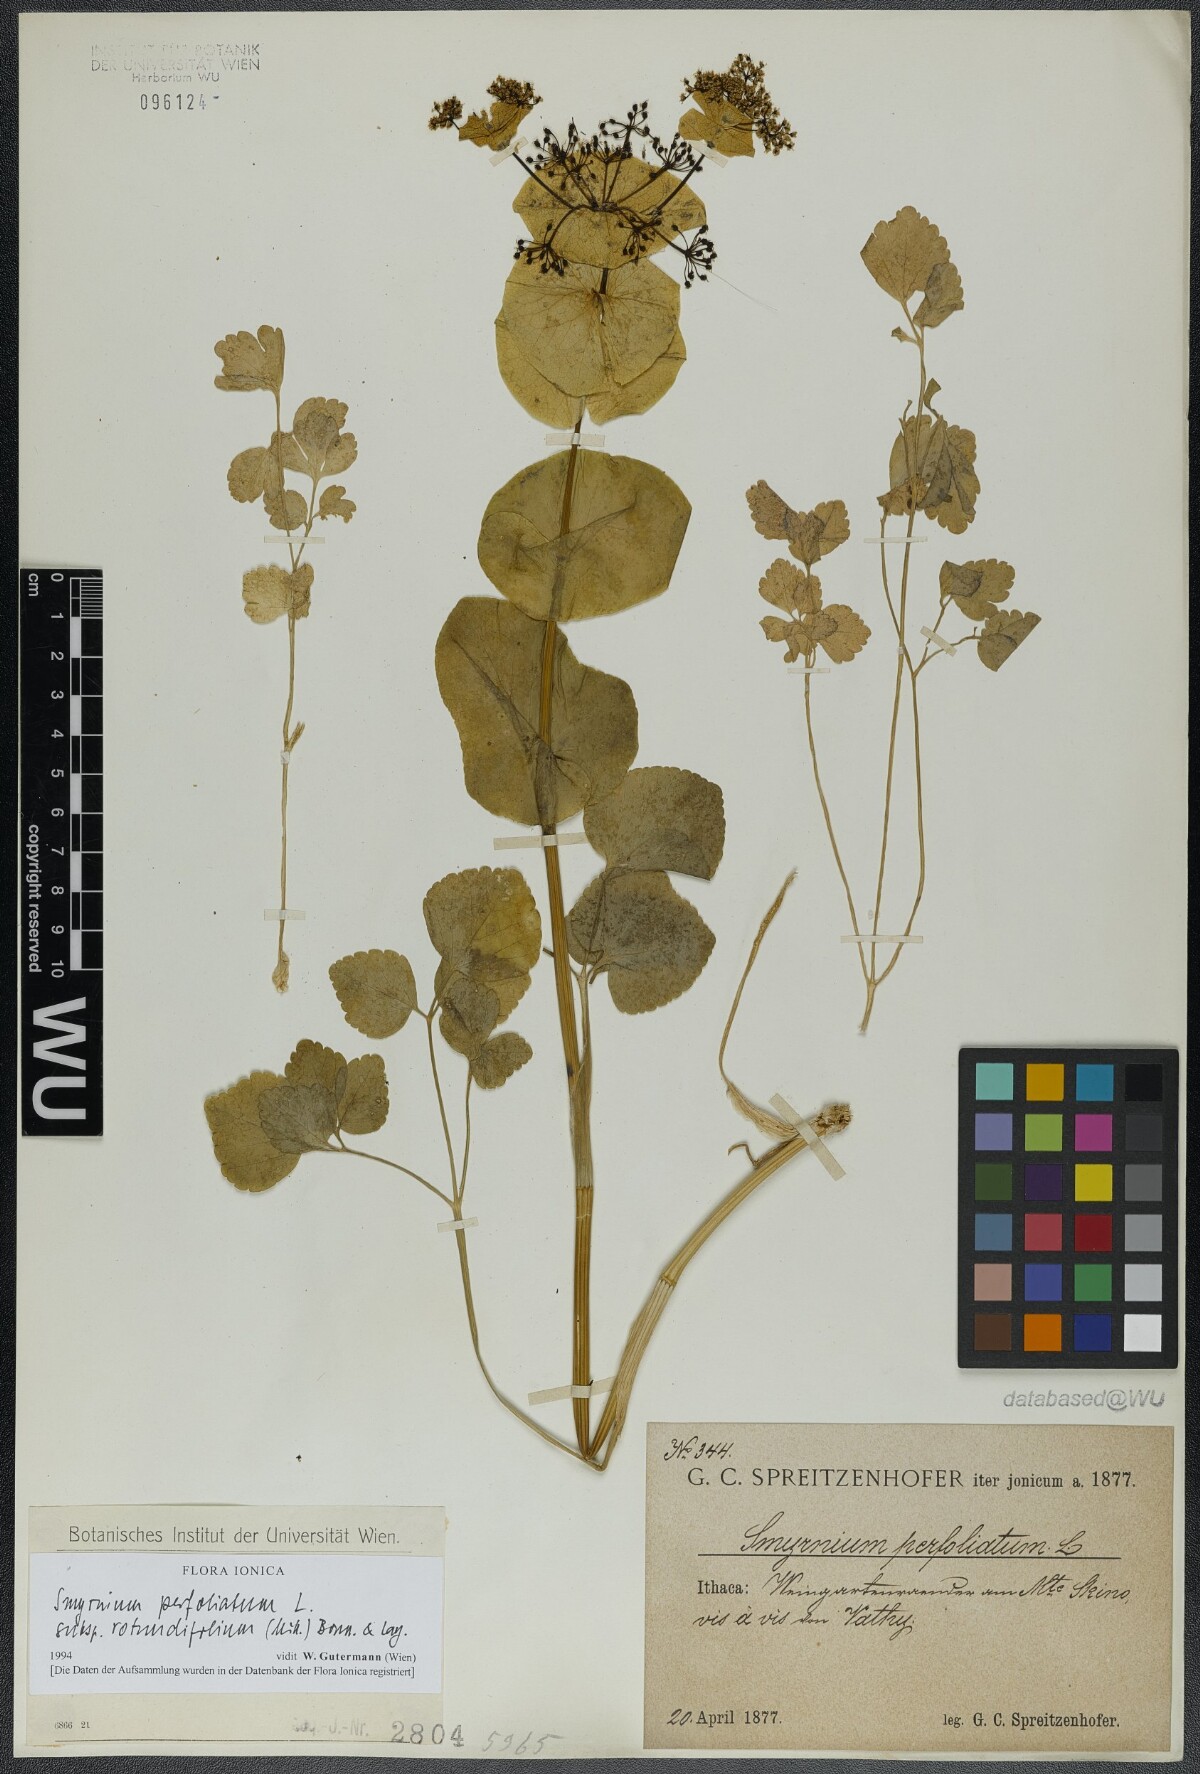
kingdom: Plantae
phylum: Tracheophyta
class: Magnoliopsida
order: Apiales
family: Apiaceae
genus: Smyrnium
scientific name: Smyrnium perfoliatum
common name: Perfoliate alexanders
